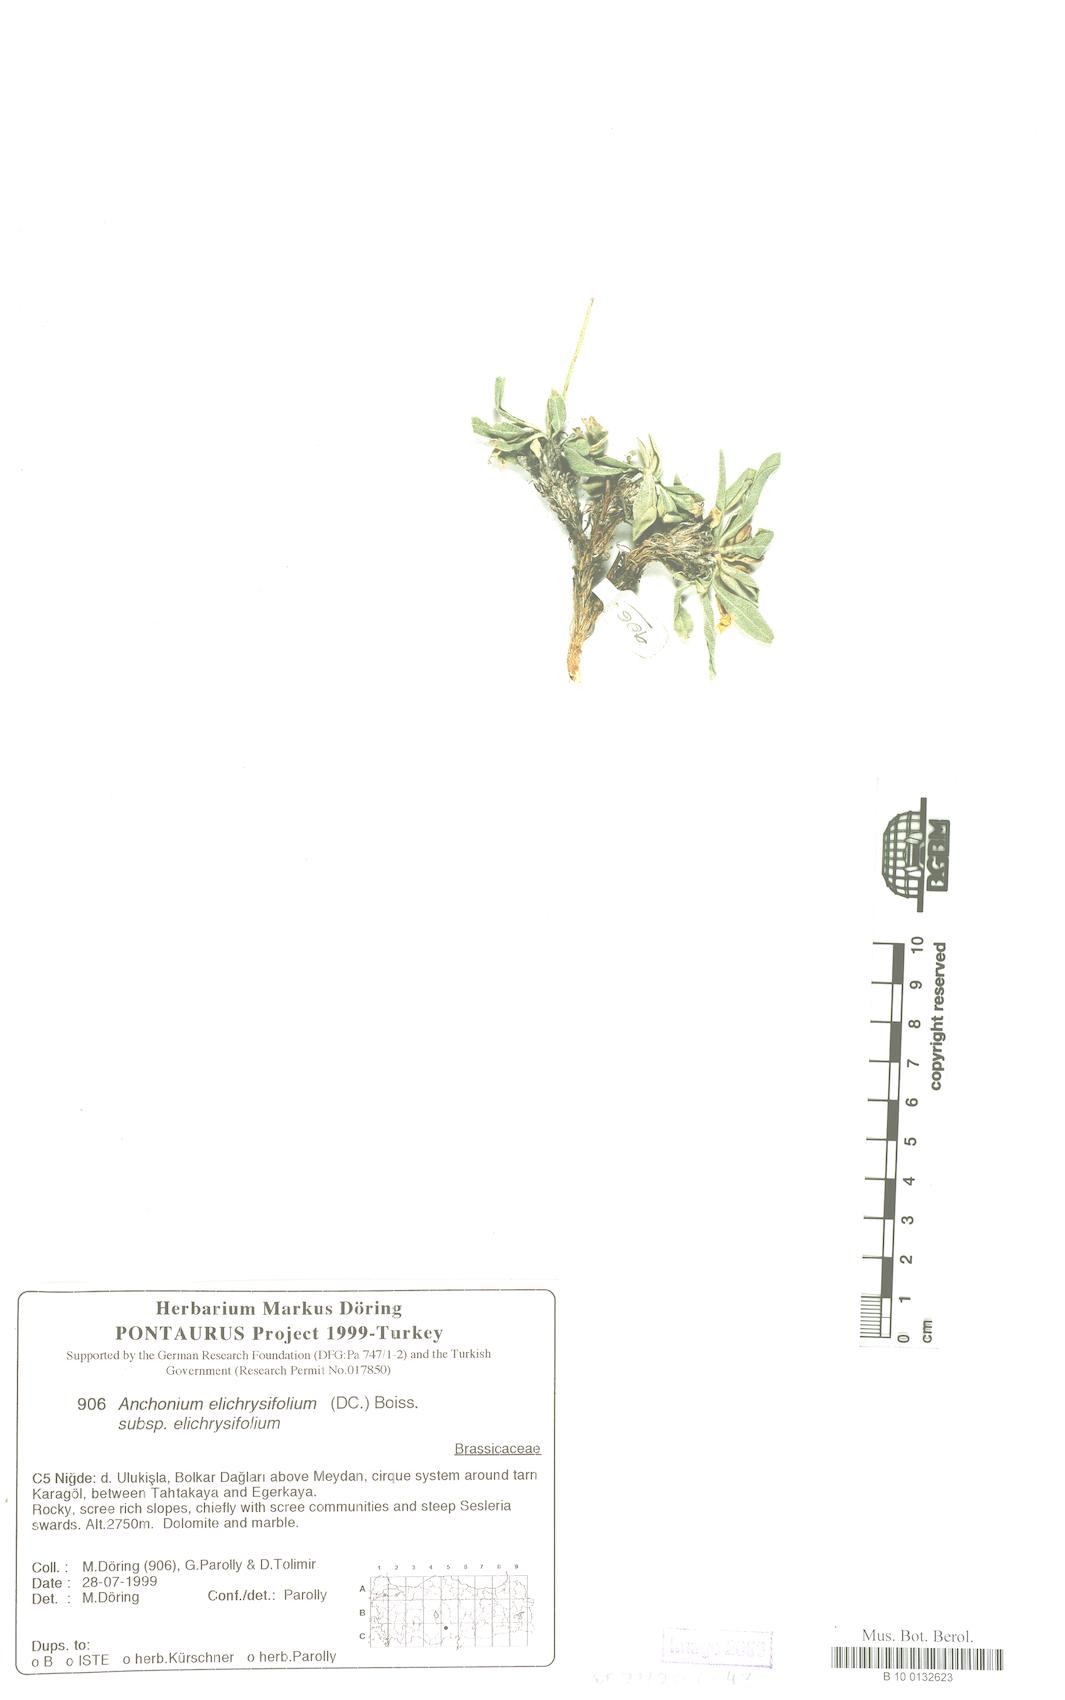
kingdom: Plantae
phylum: Tracheophyta
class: Magnoliopsida
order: Brassicales
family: Brassicaceae
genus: Anchonium
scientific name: Anchonium elichrysifolium
